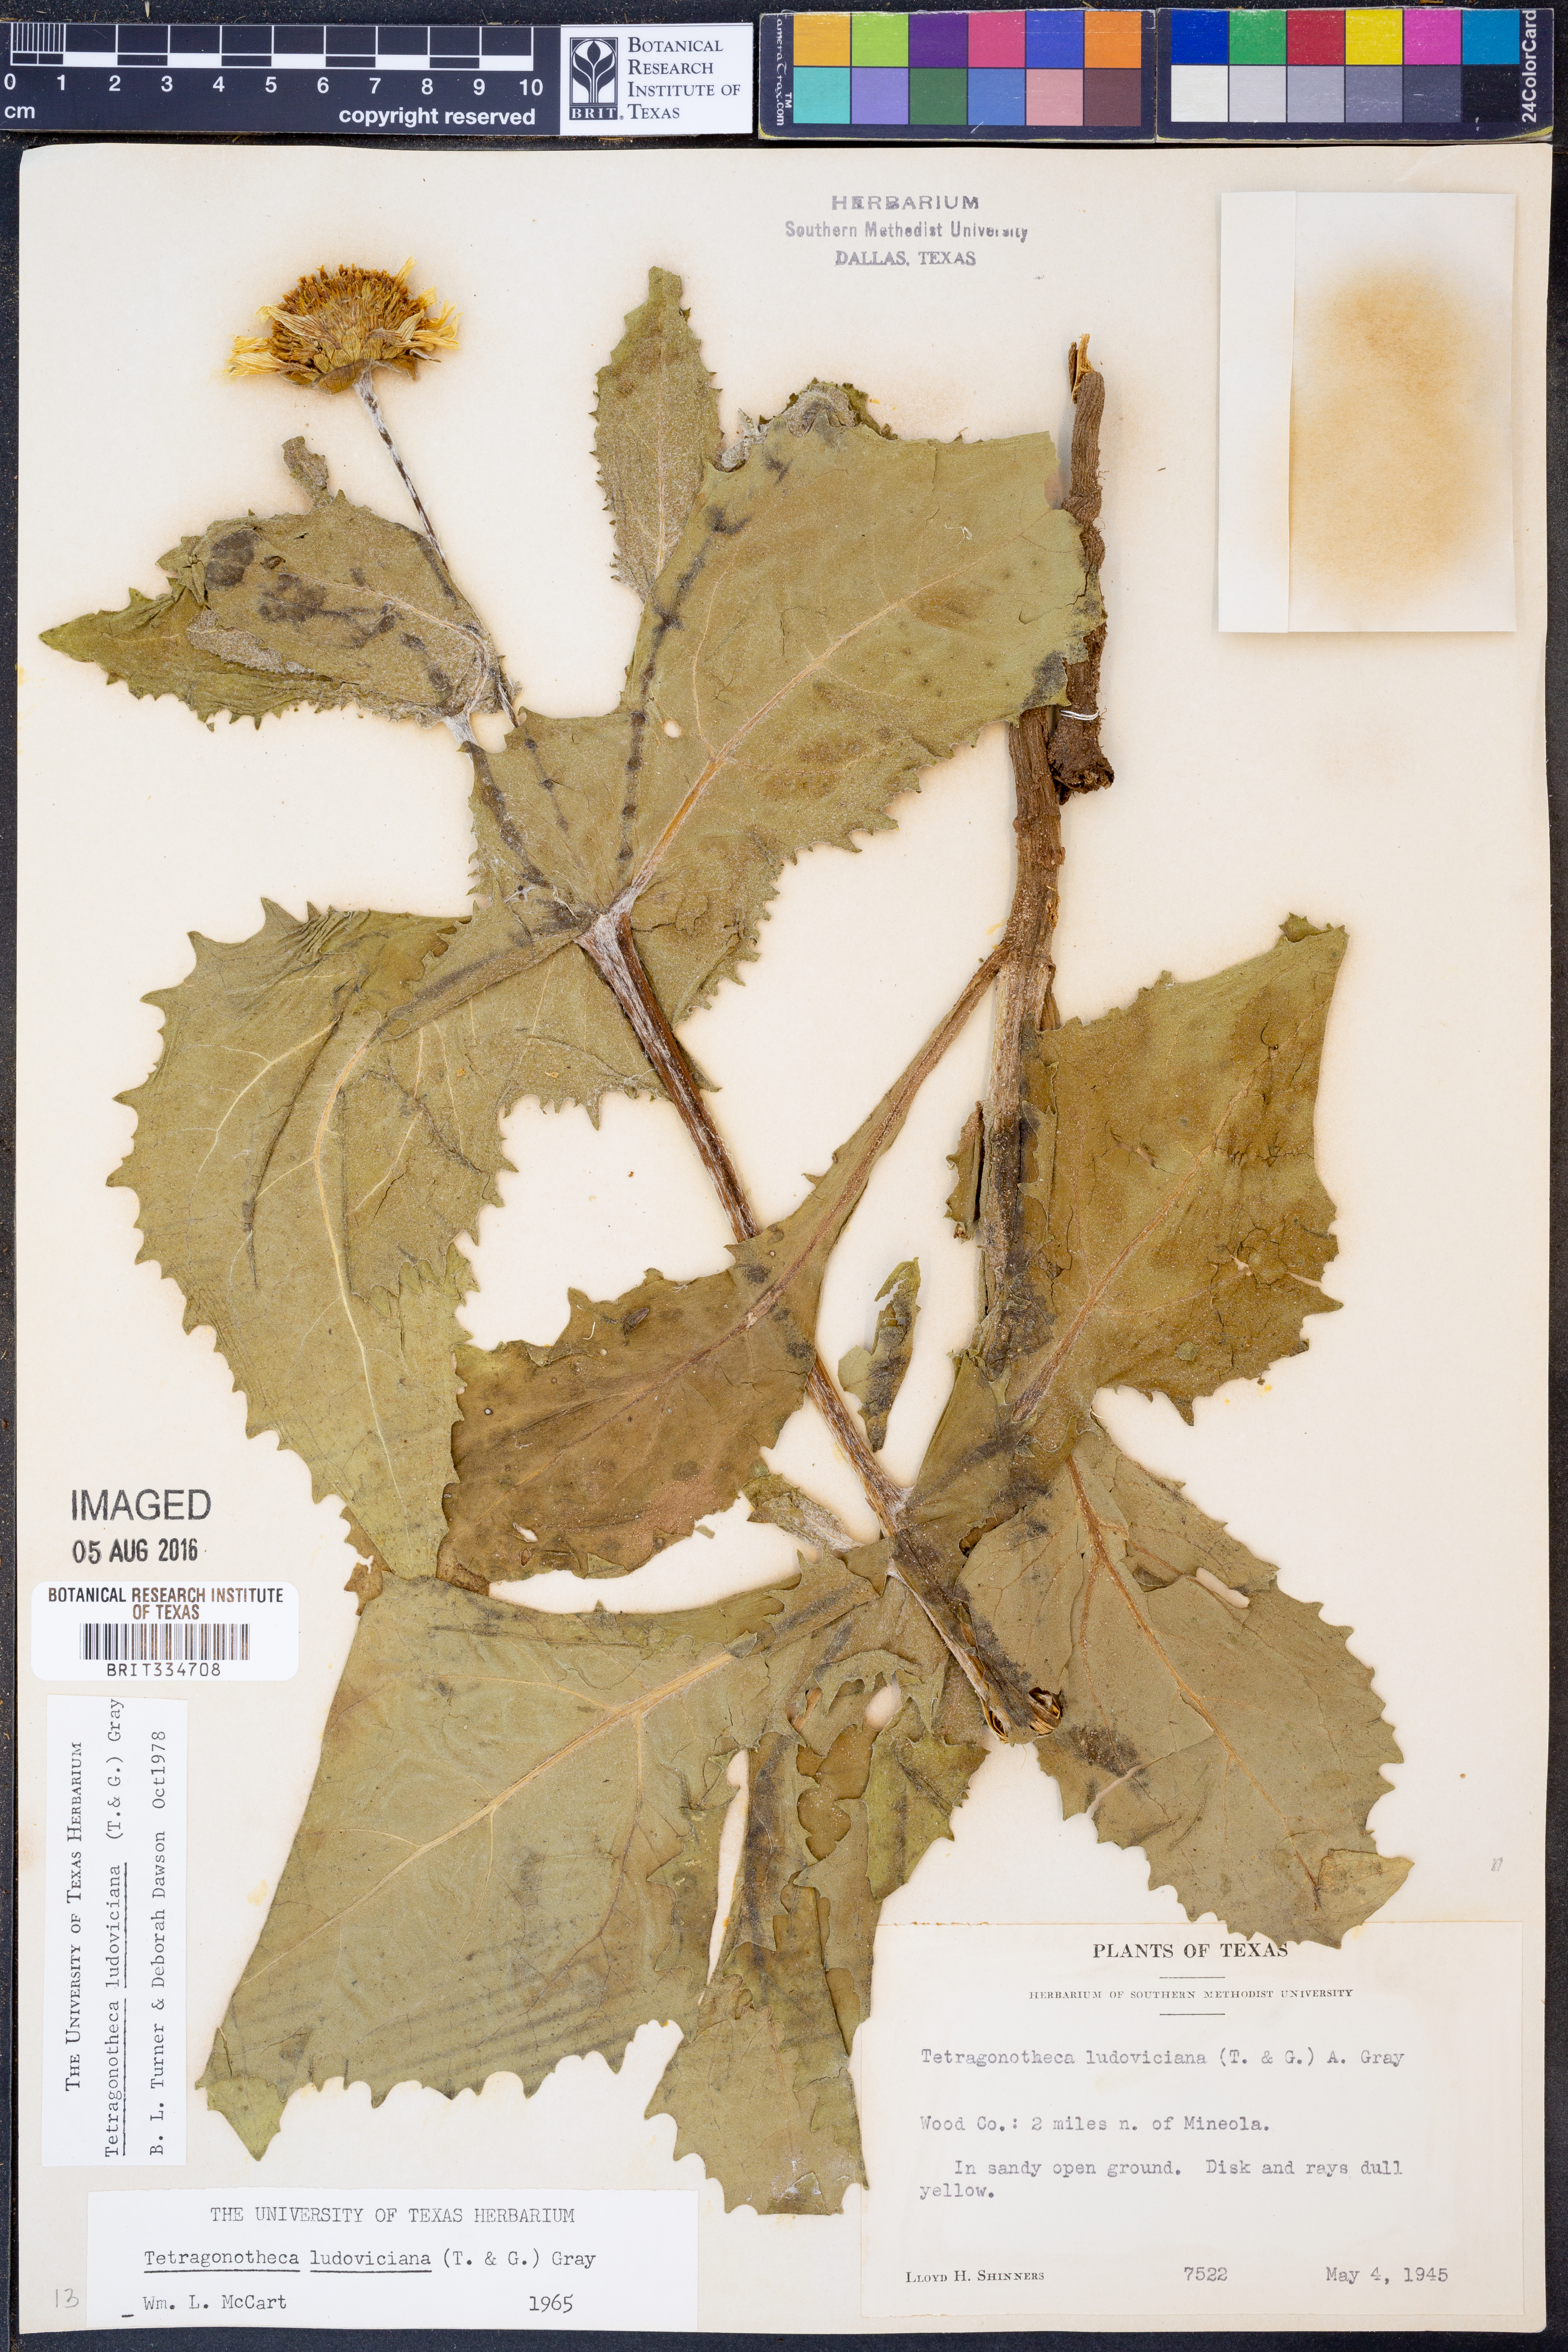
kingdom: Plantae
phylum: Tracheophyta
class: Magnoliopsida
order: Asterales
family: Asteraceae
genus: Tetragonotheca
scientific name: Tetragonotheca ludoviciana
